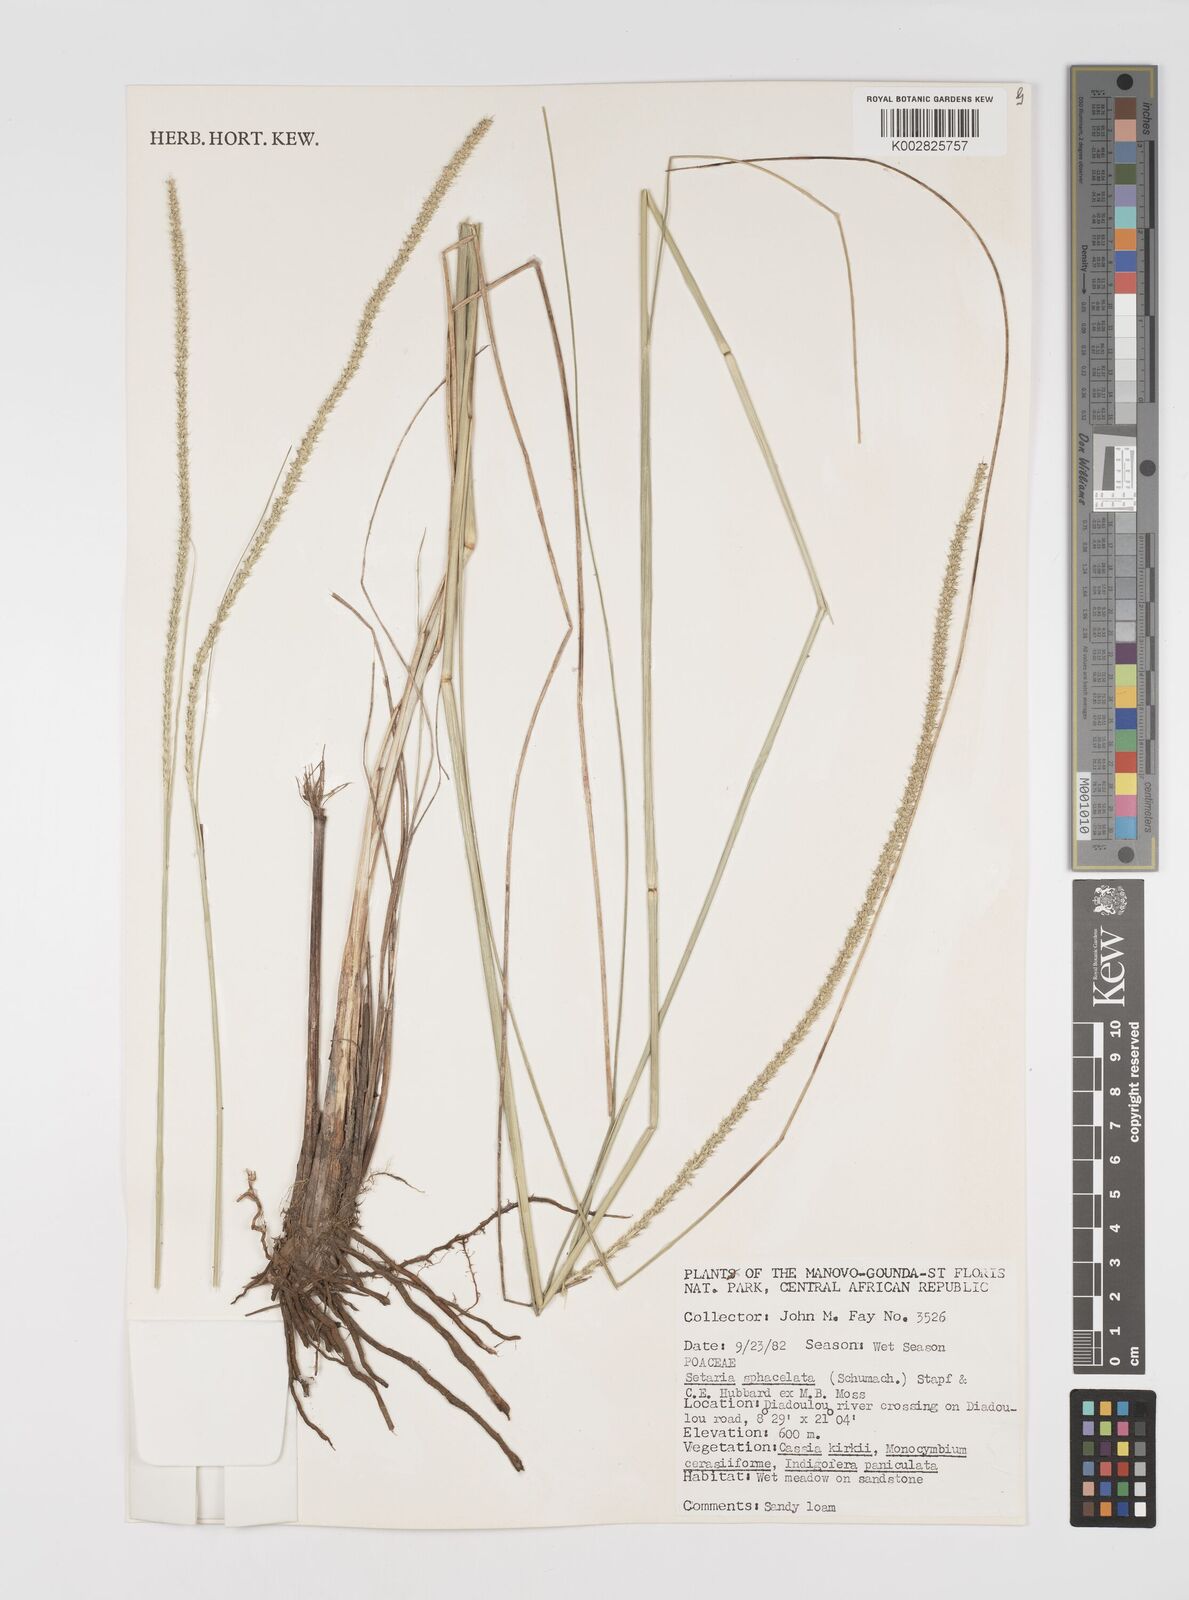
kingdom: Plantae
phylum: Tracheophyta
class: Liliopsida
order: Poales
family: Poaceae
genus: Setaria
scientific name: Setaria sphacelata
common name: African bristlegrass
